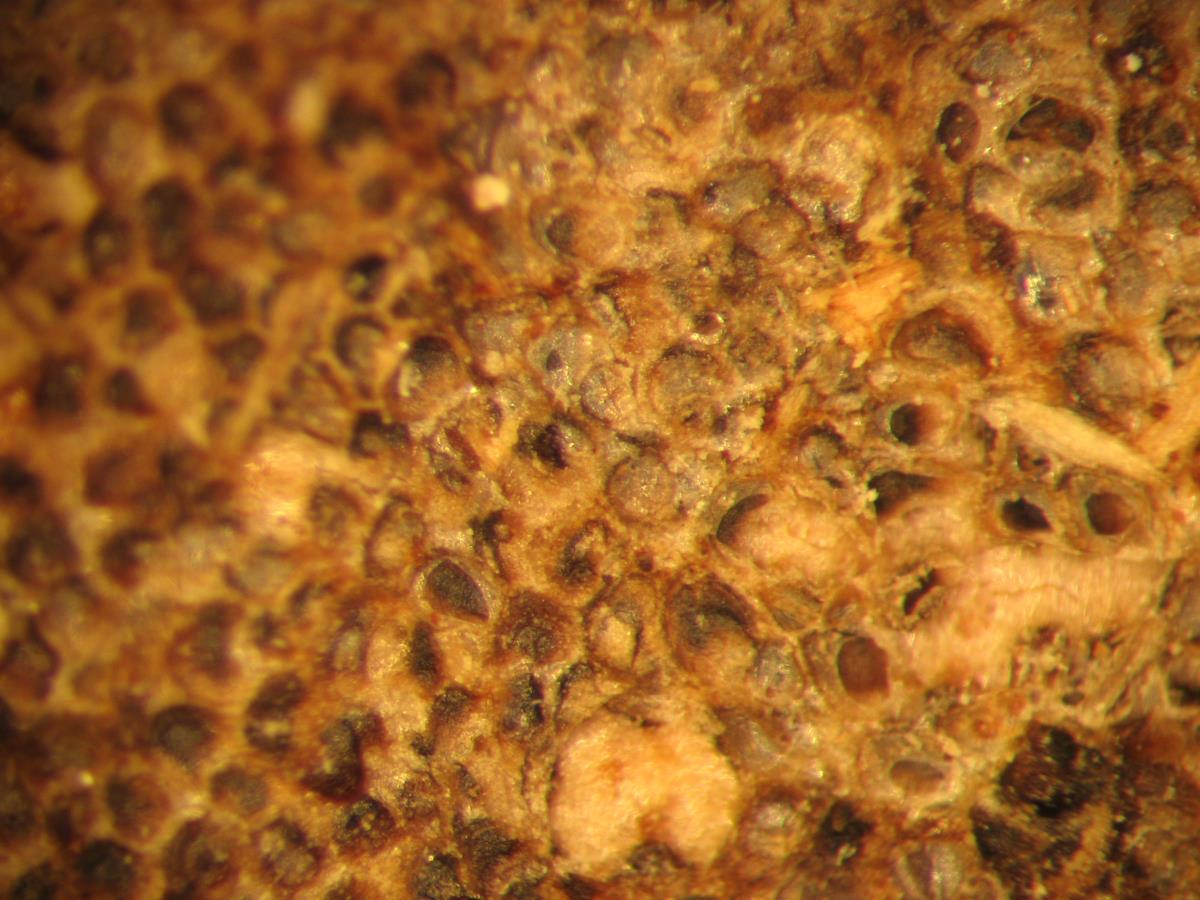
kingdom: Fungi
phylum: Basidiomycota
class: Agaricomycetes
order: Agaricales
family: Pleurotaceae
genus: Resupinatus
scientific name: Resupinatus poriaeformis
